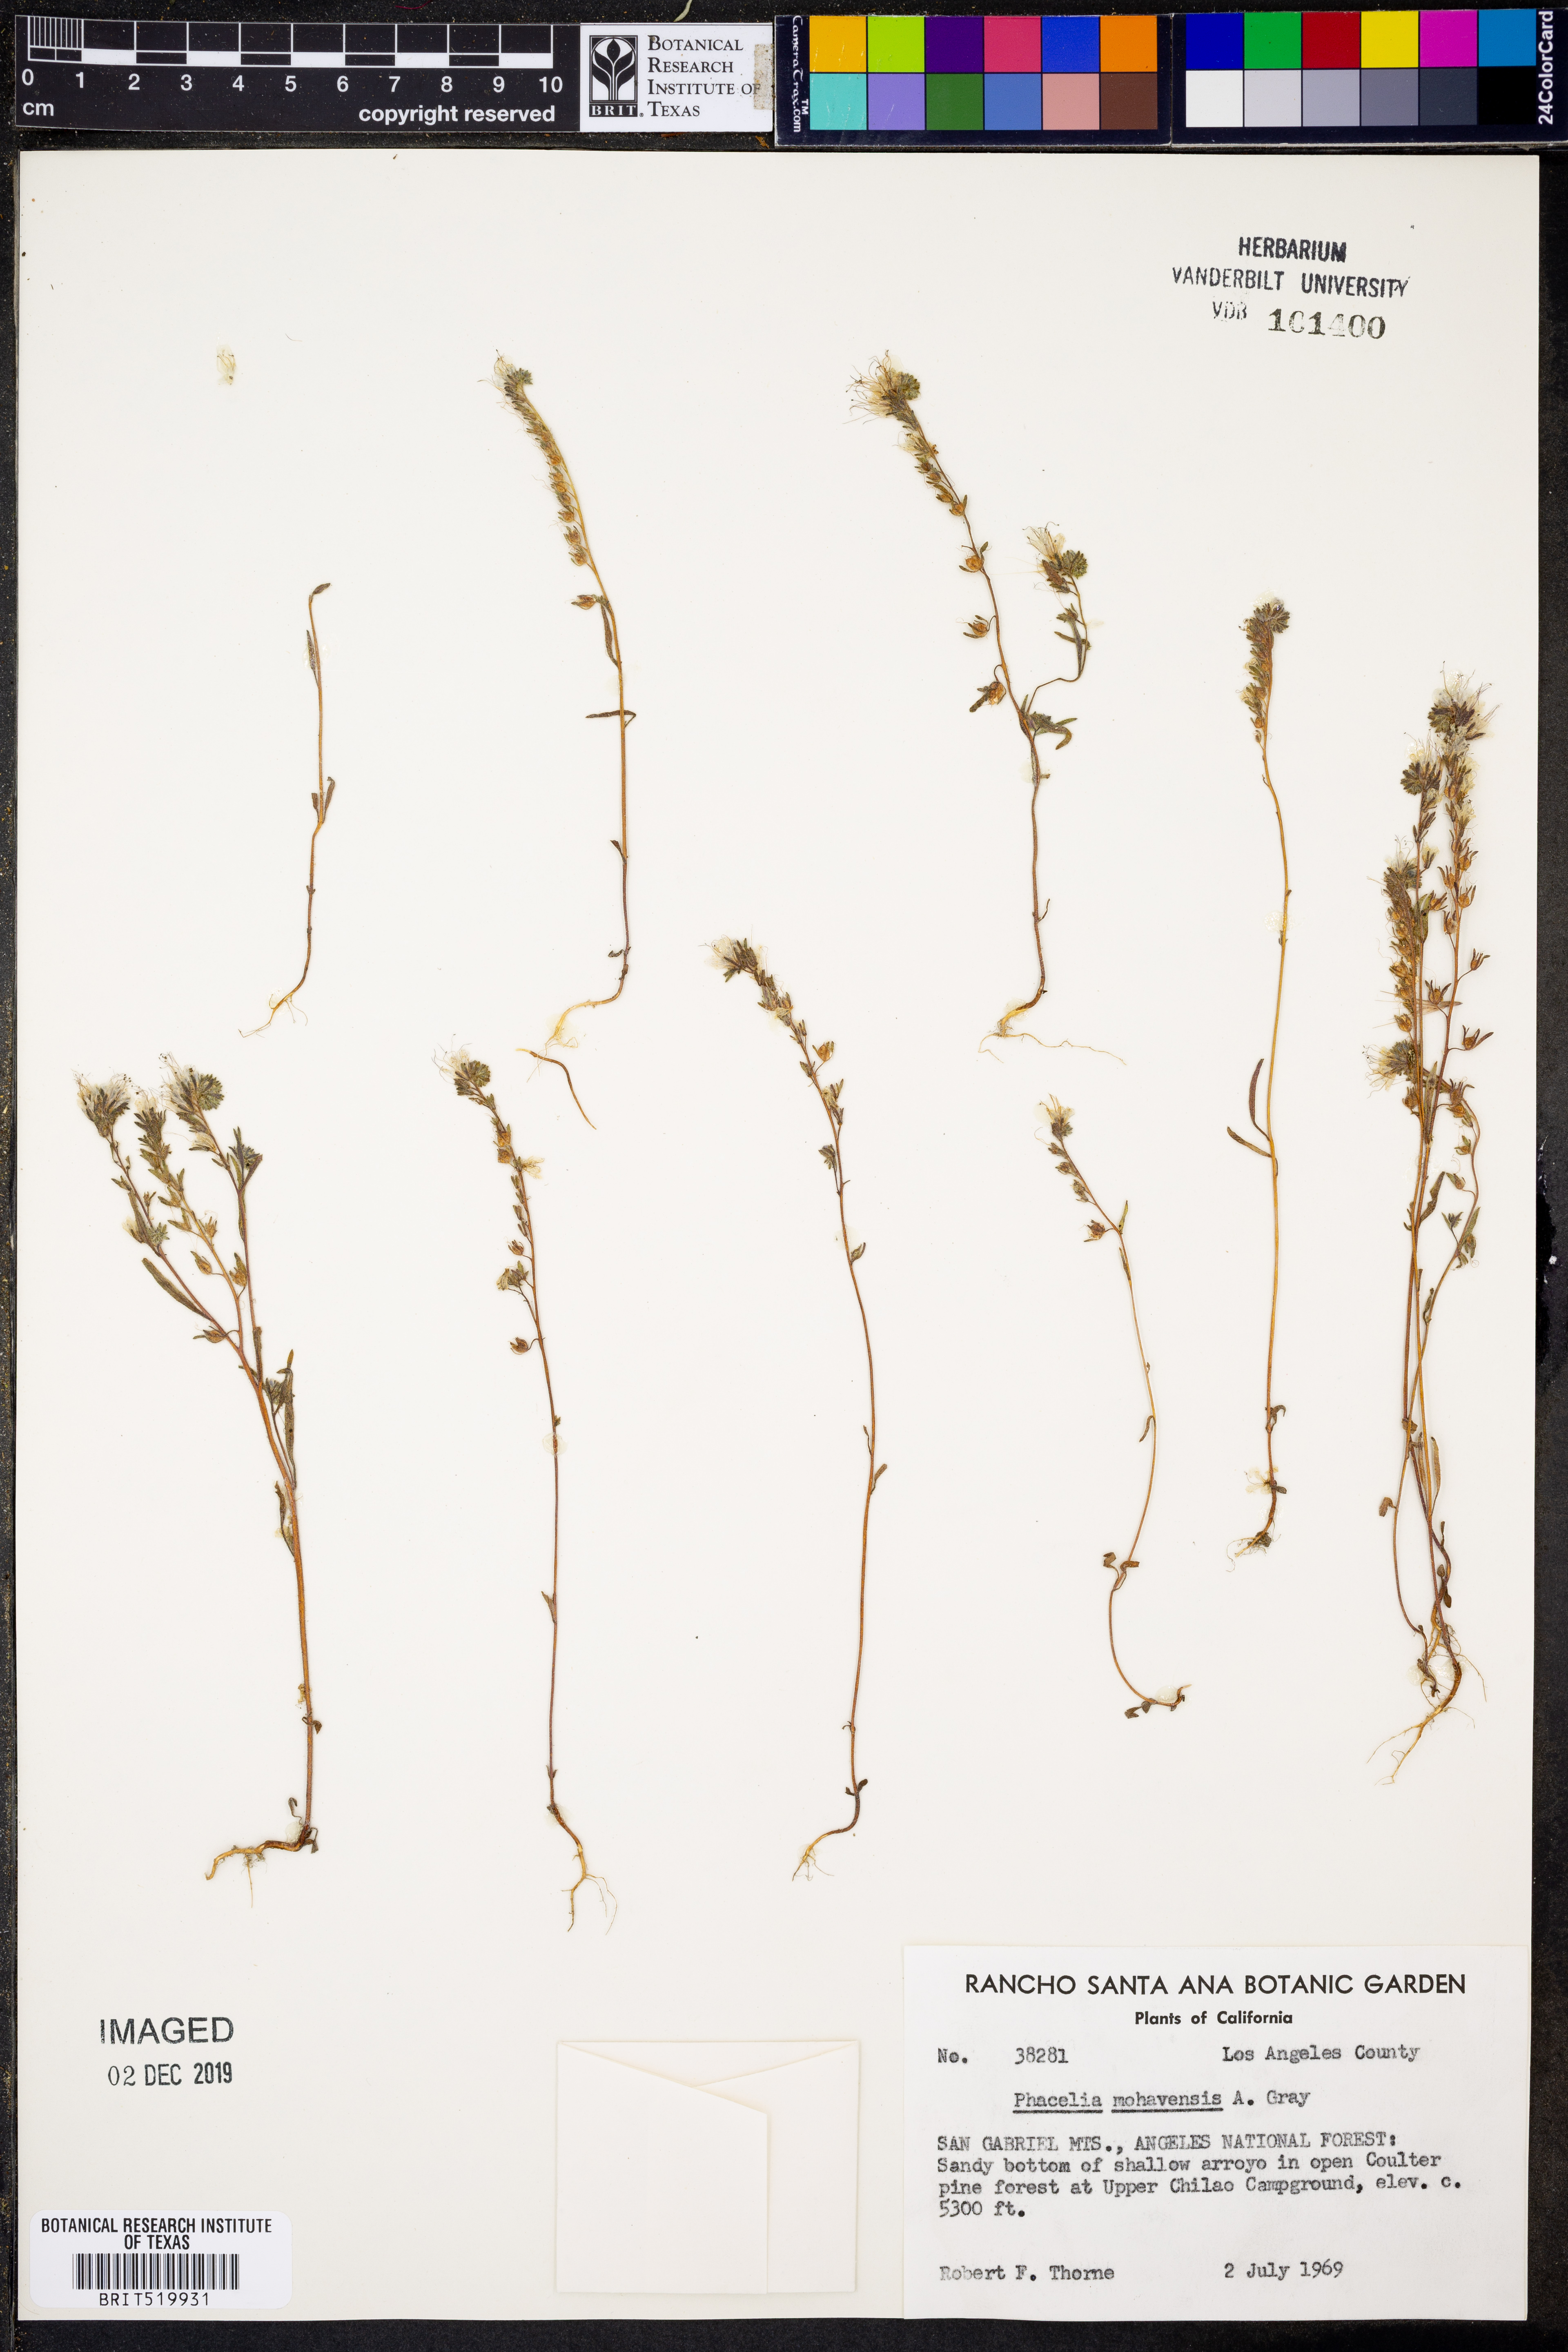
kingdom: Plantae
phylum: Tracheophyta
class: Magnoliopsida
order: Boraginales
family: Hydrophyllaceae
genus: Phacelia
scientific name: Phacelia mohavensis
